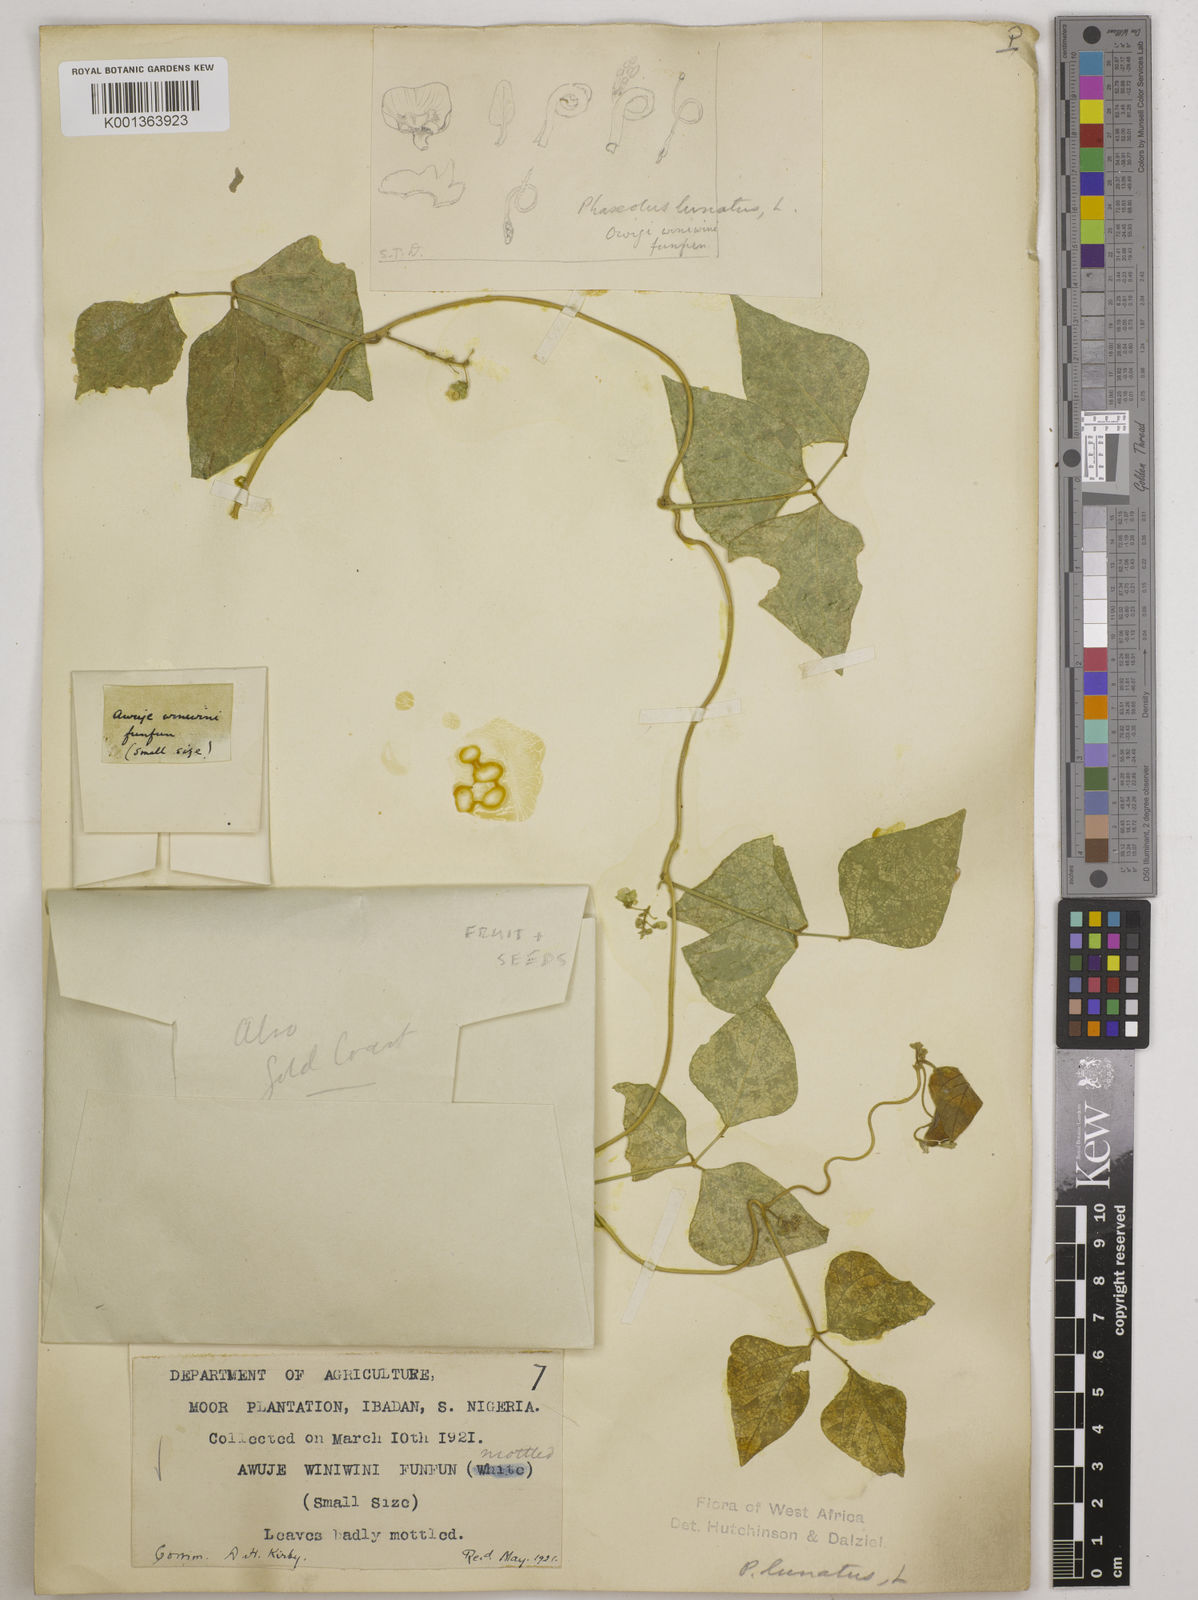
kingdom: Plantae
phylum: Tracheophyta
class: Magnoliopsida
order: Fabales
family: Fabaceae
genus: Phaseolus
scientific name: Phaseolus lunatus
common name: Sieva bean
